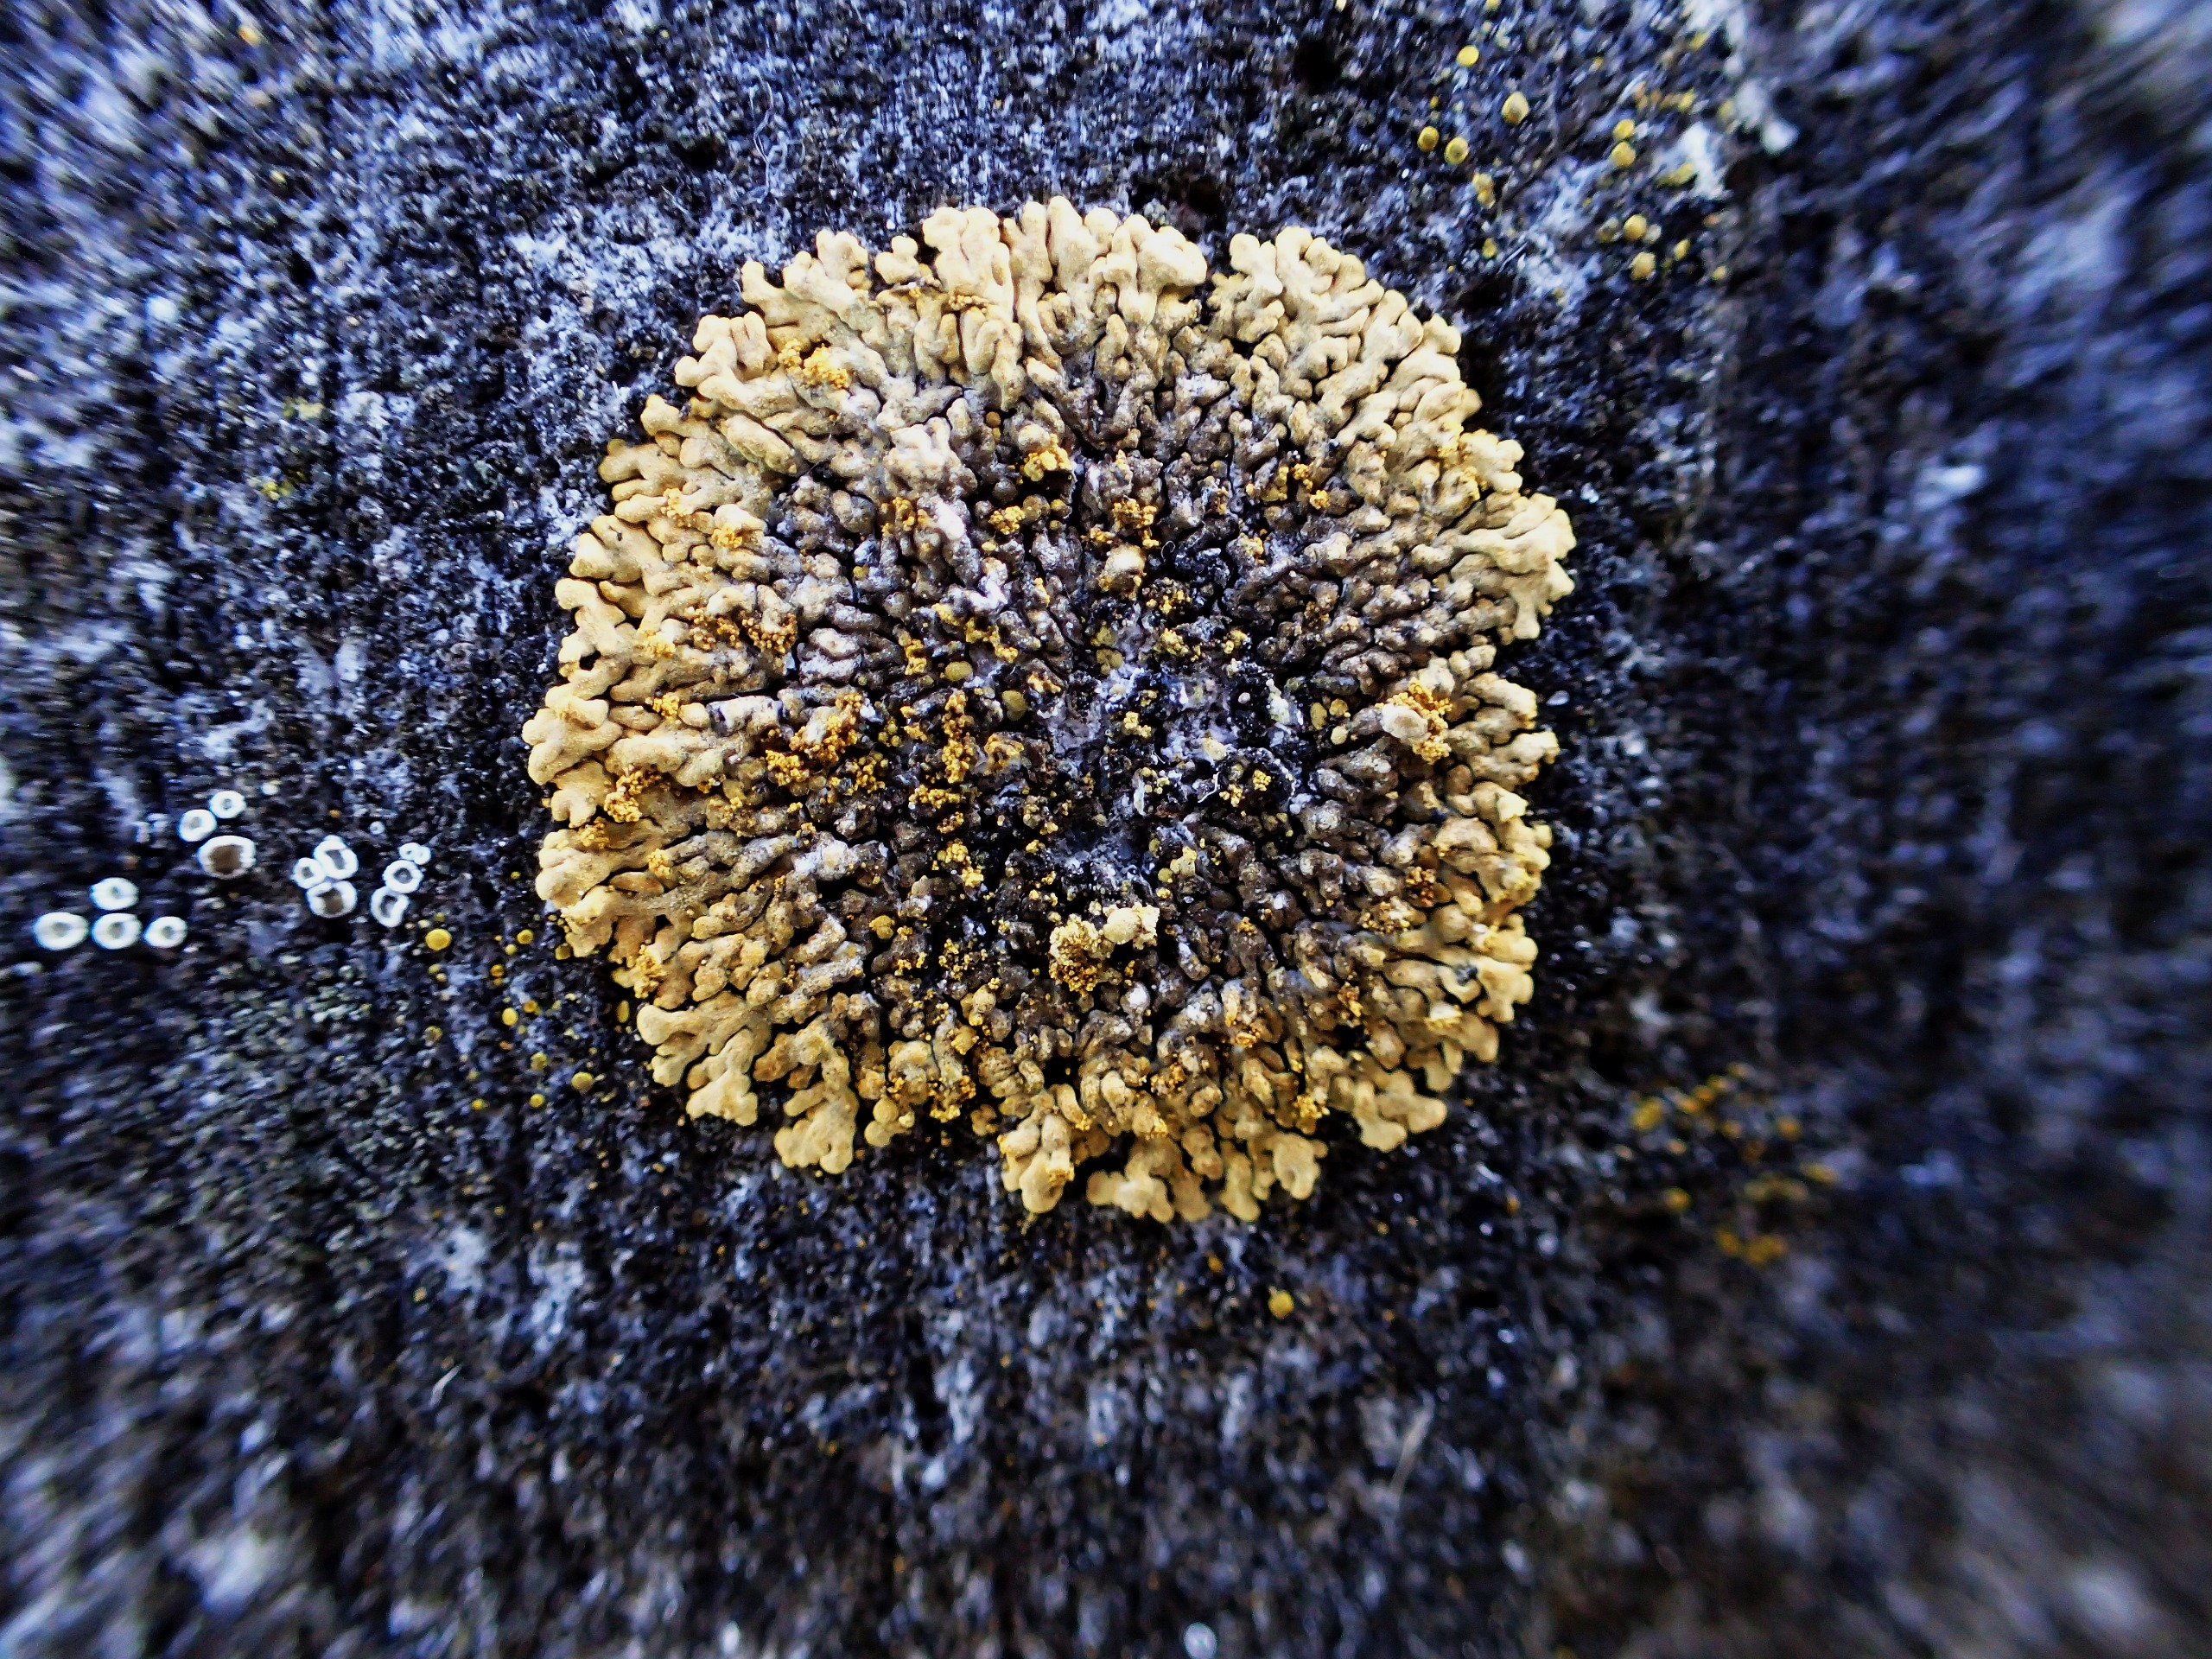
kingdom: Fungi
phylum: Ascomycota
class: Lecanoromycetes
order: Teloschistales
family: Teloschistaceae
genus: Calogaya
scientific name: Calogaya decipiens
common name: Knudret orangelav
